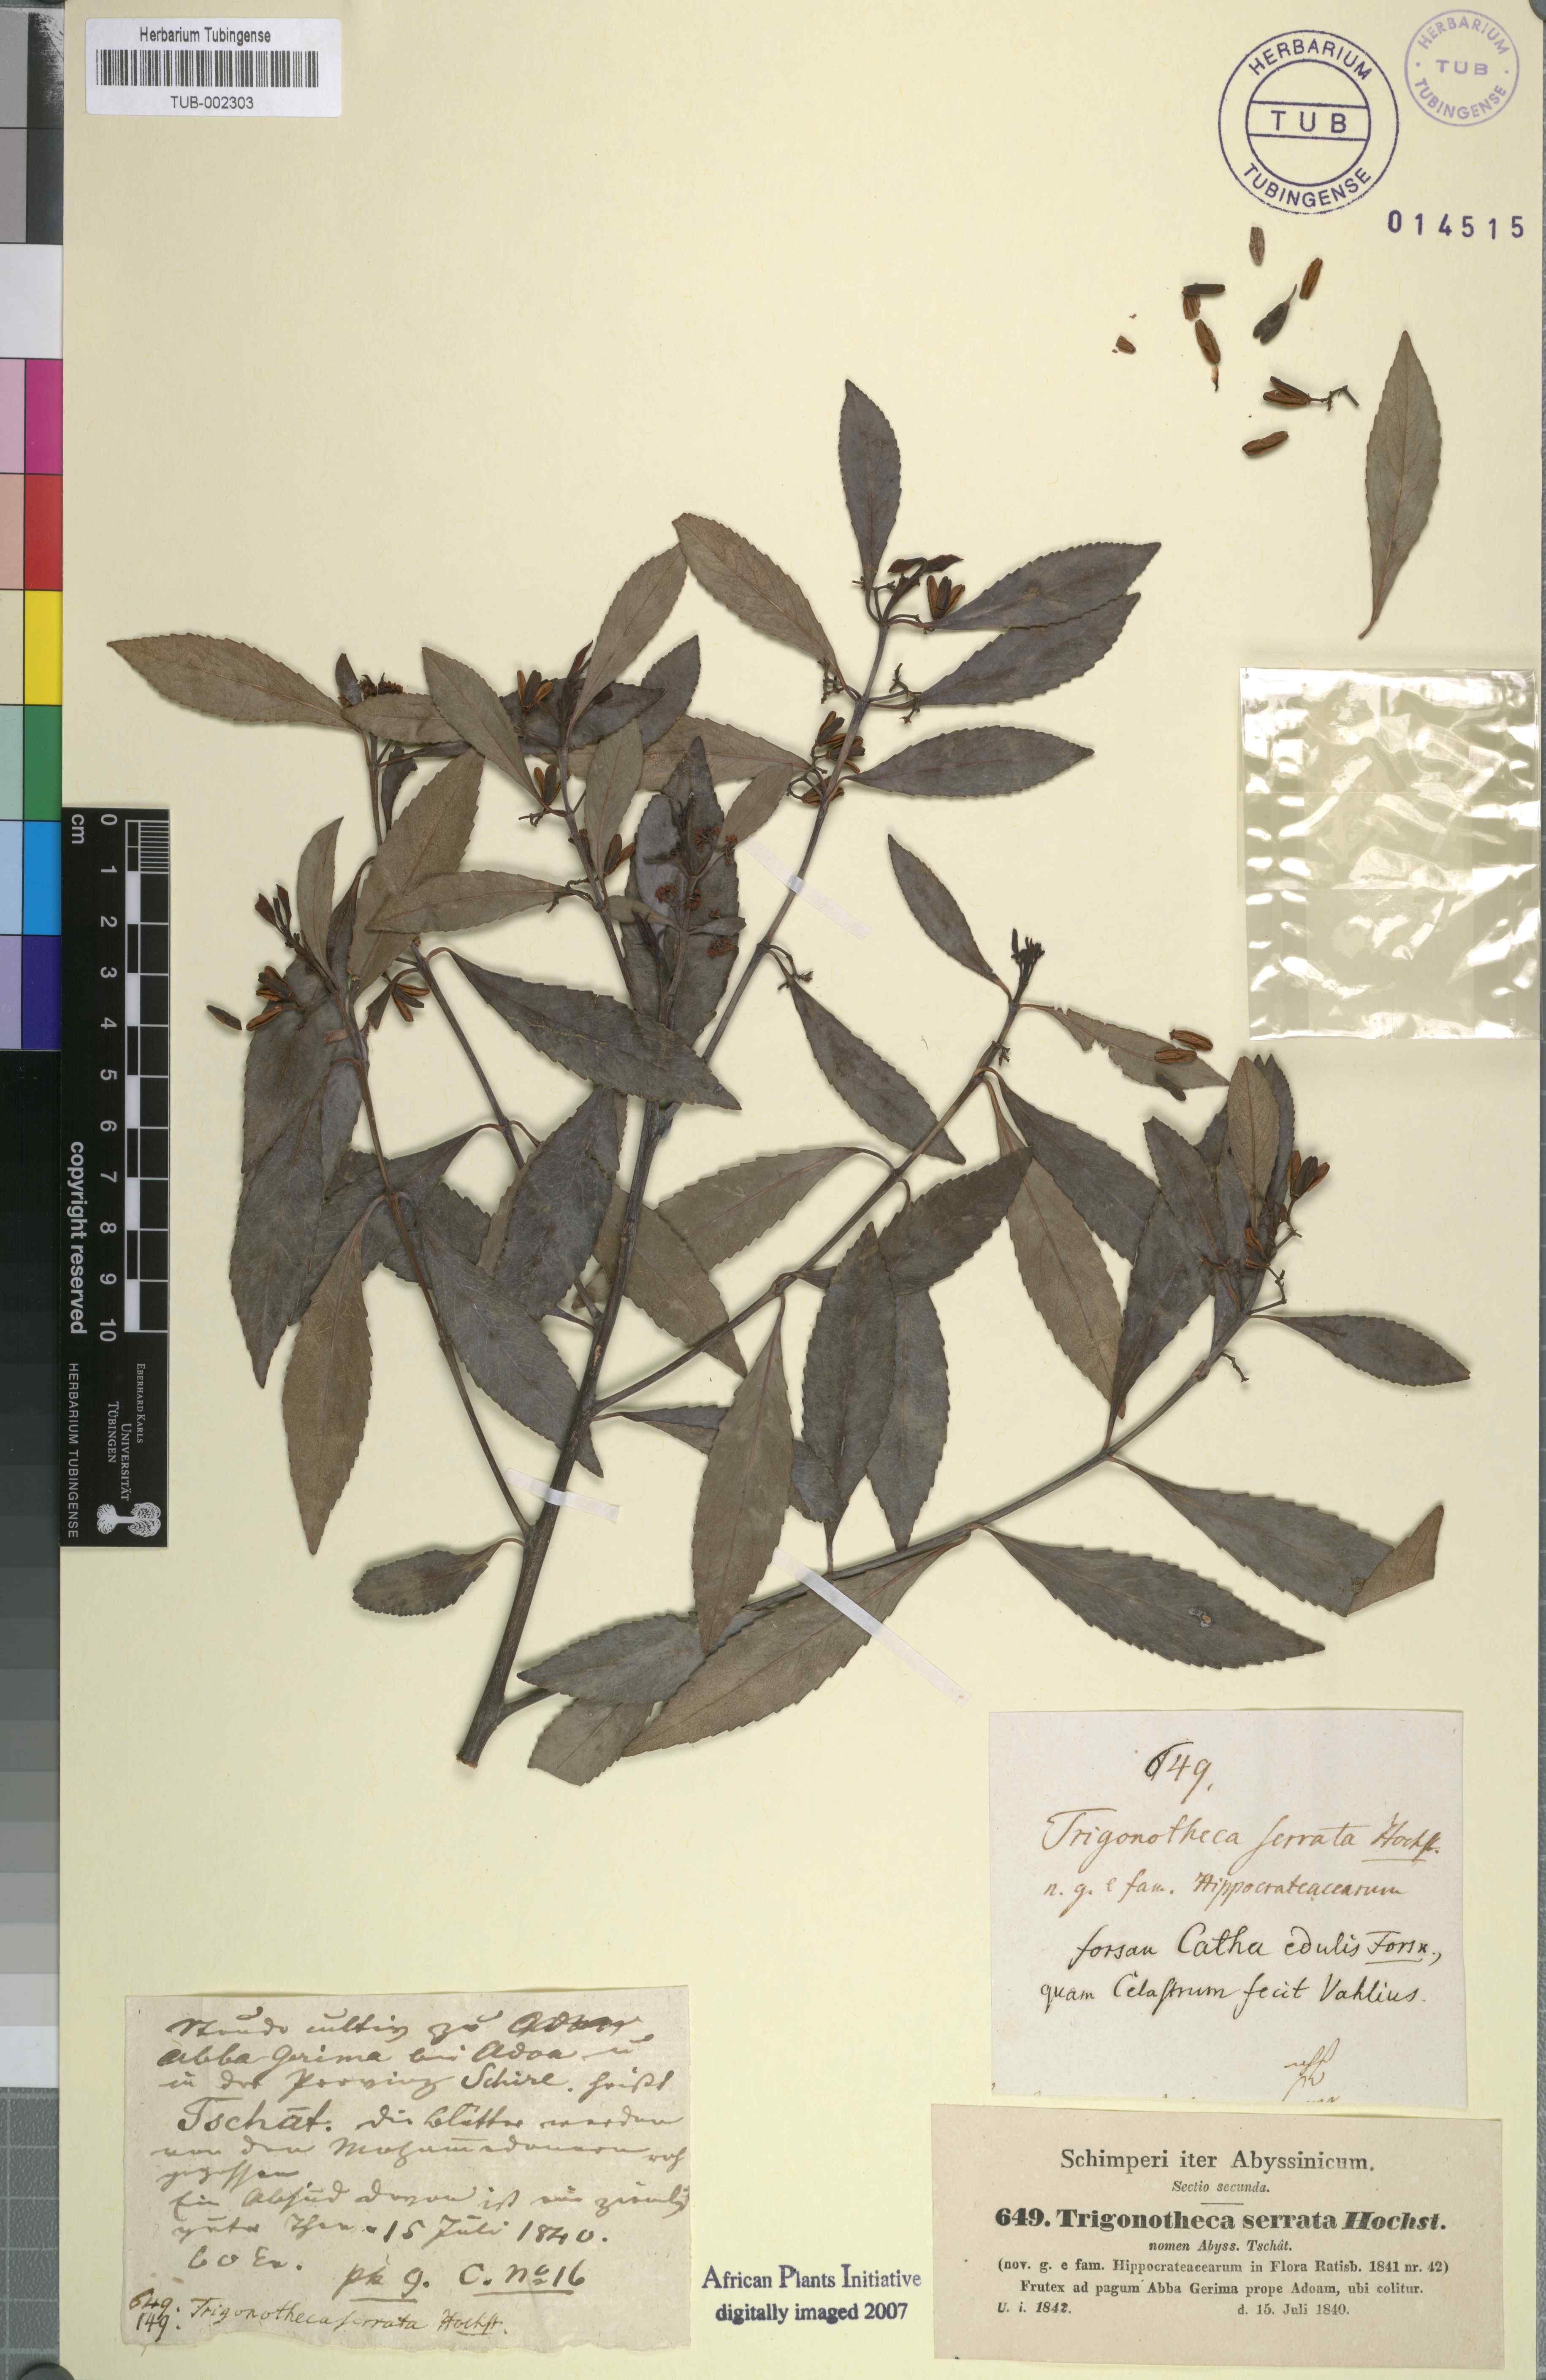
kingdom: Plantae
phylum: Tracheophyta
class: Magnoliopsida
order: Celastrales
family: Celastraceae
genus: Catha
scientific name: Catha edulis
